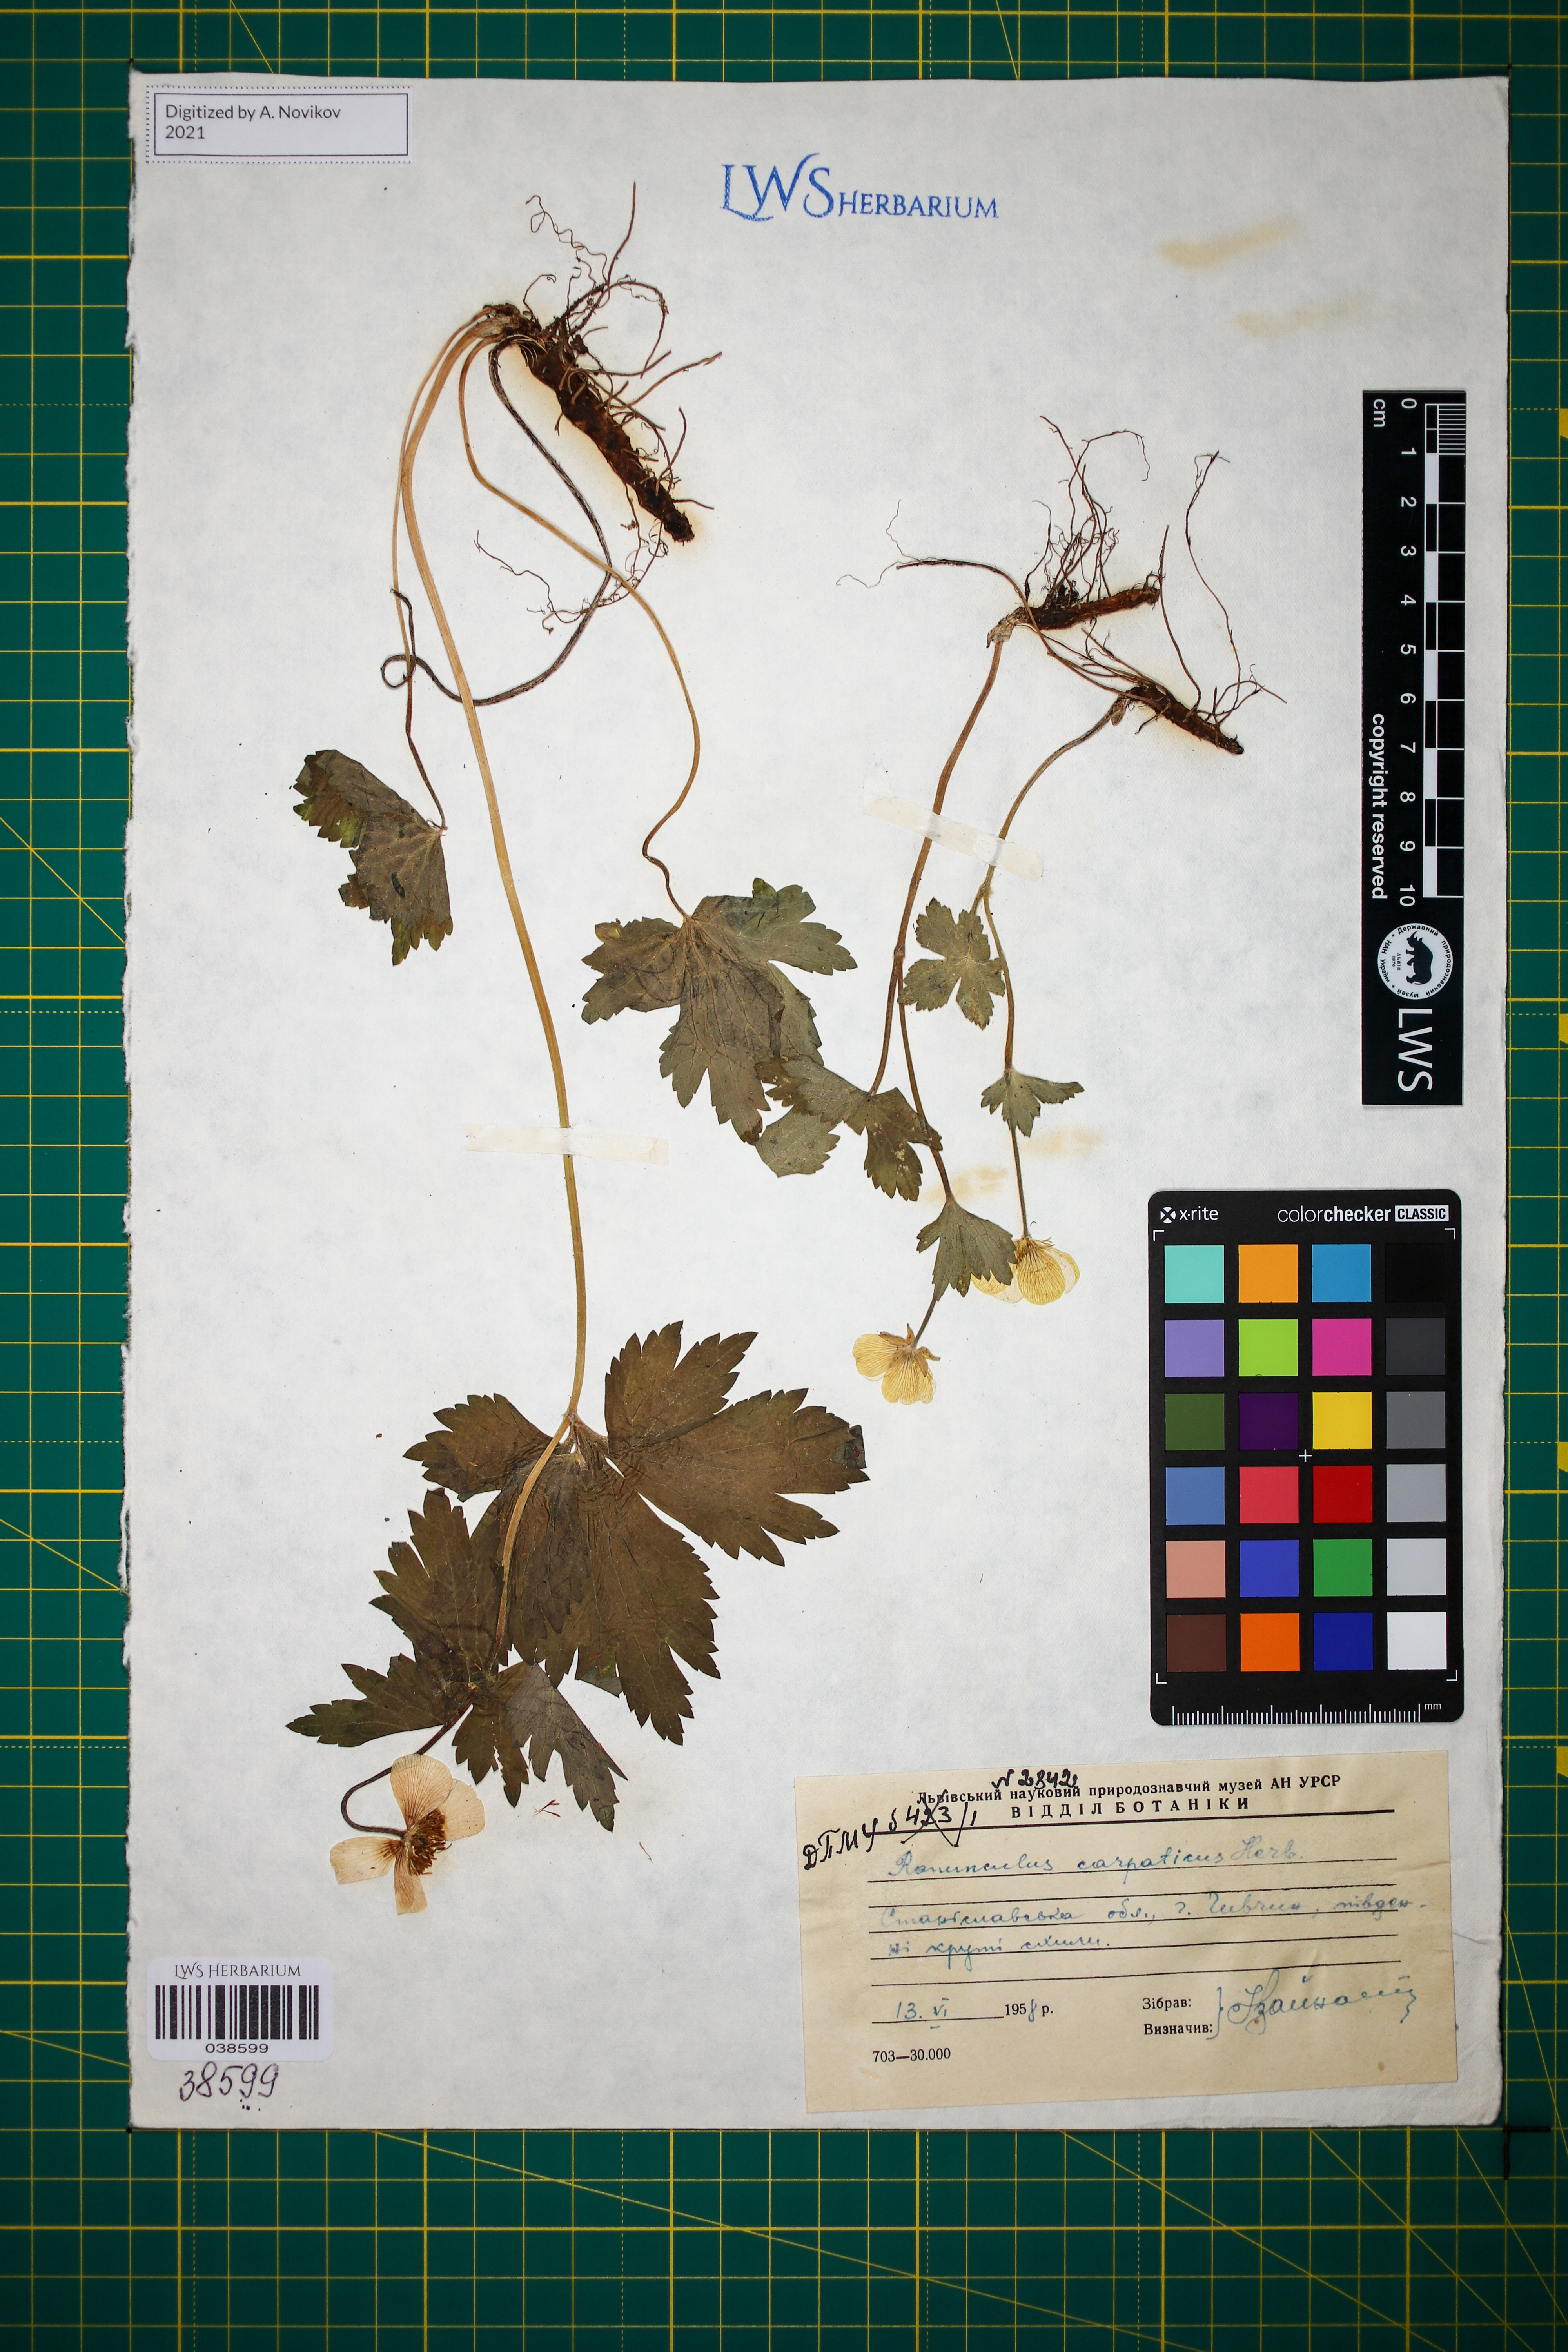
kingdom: Plantae
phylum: Tracheophyta
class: Magnoliopsida
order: Ranunculales
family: Ranunculaceae
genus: Ranunculus
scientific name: Ranunculus carpaticus
